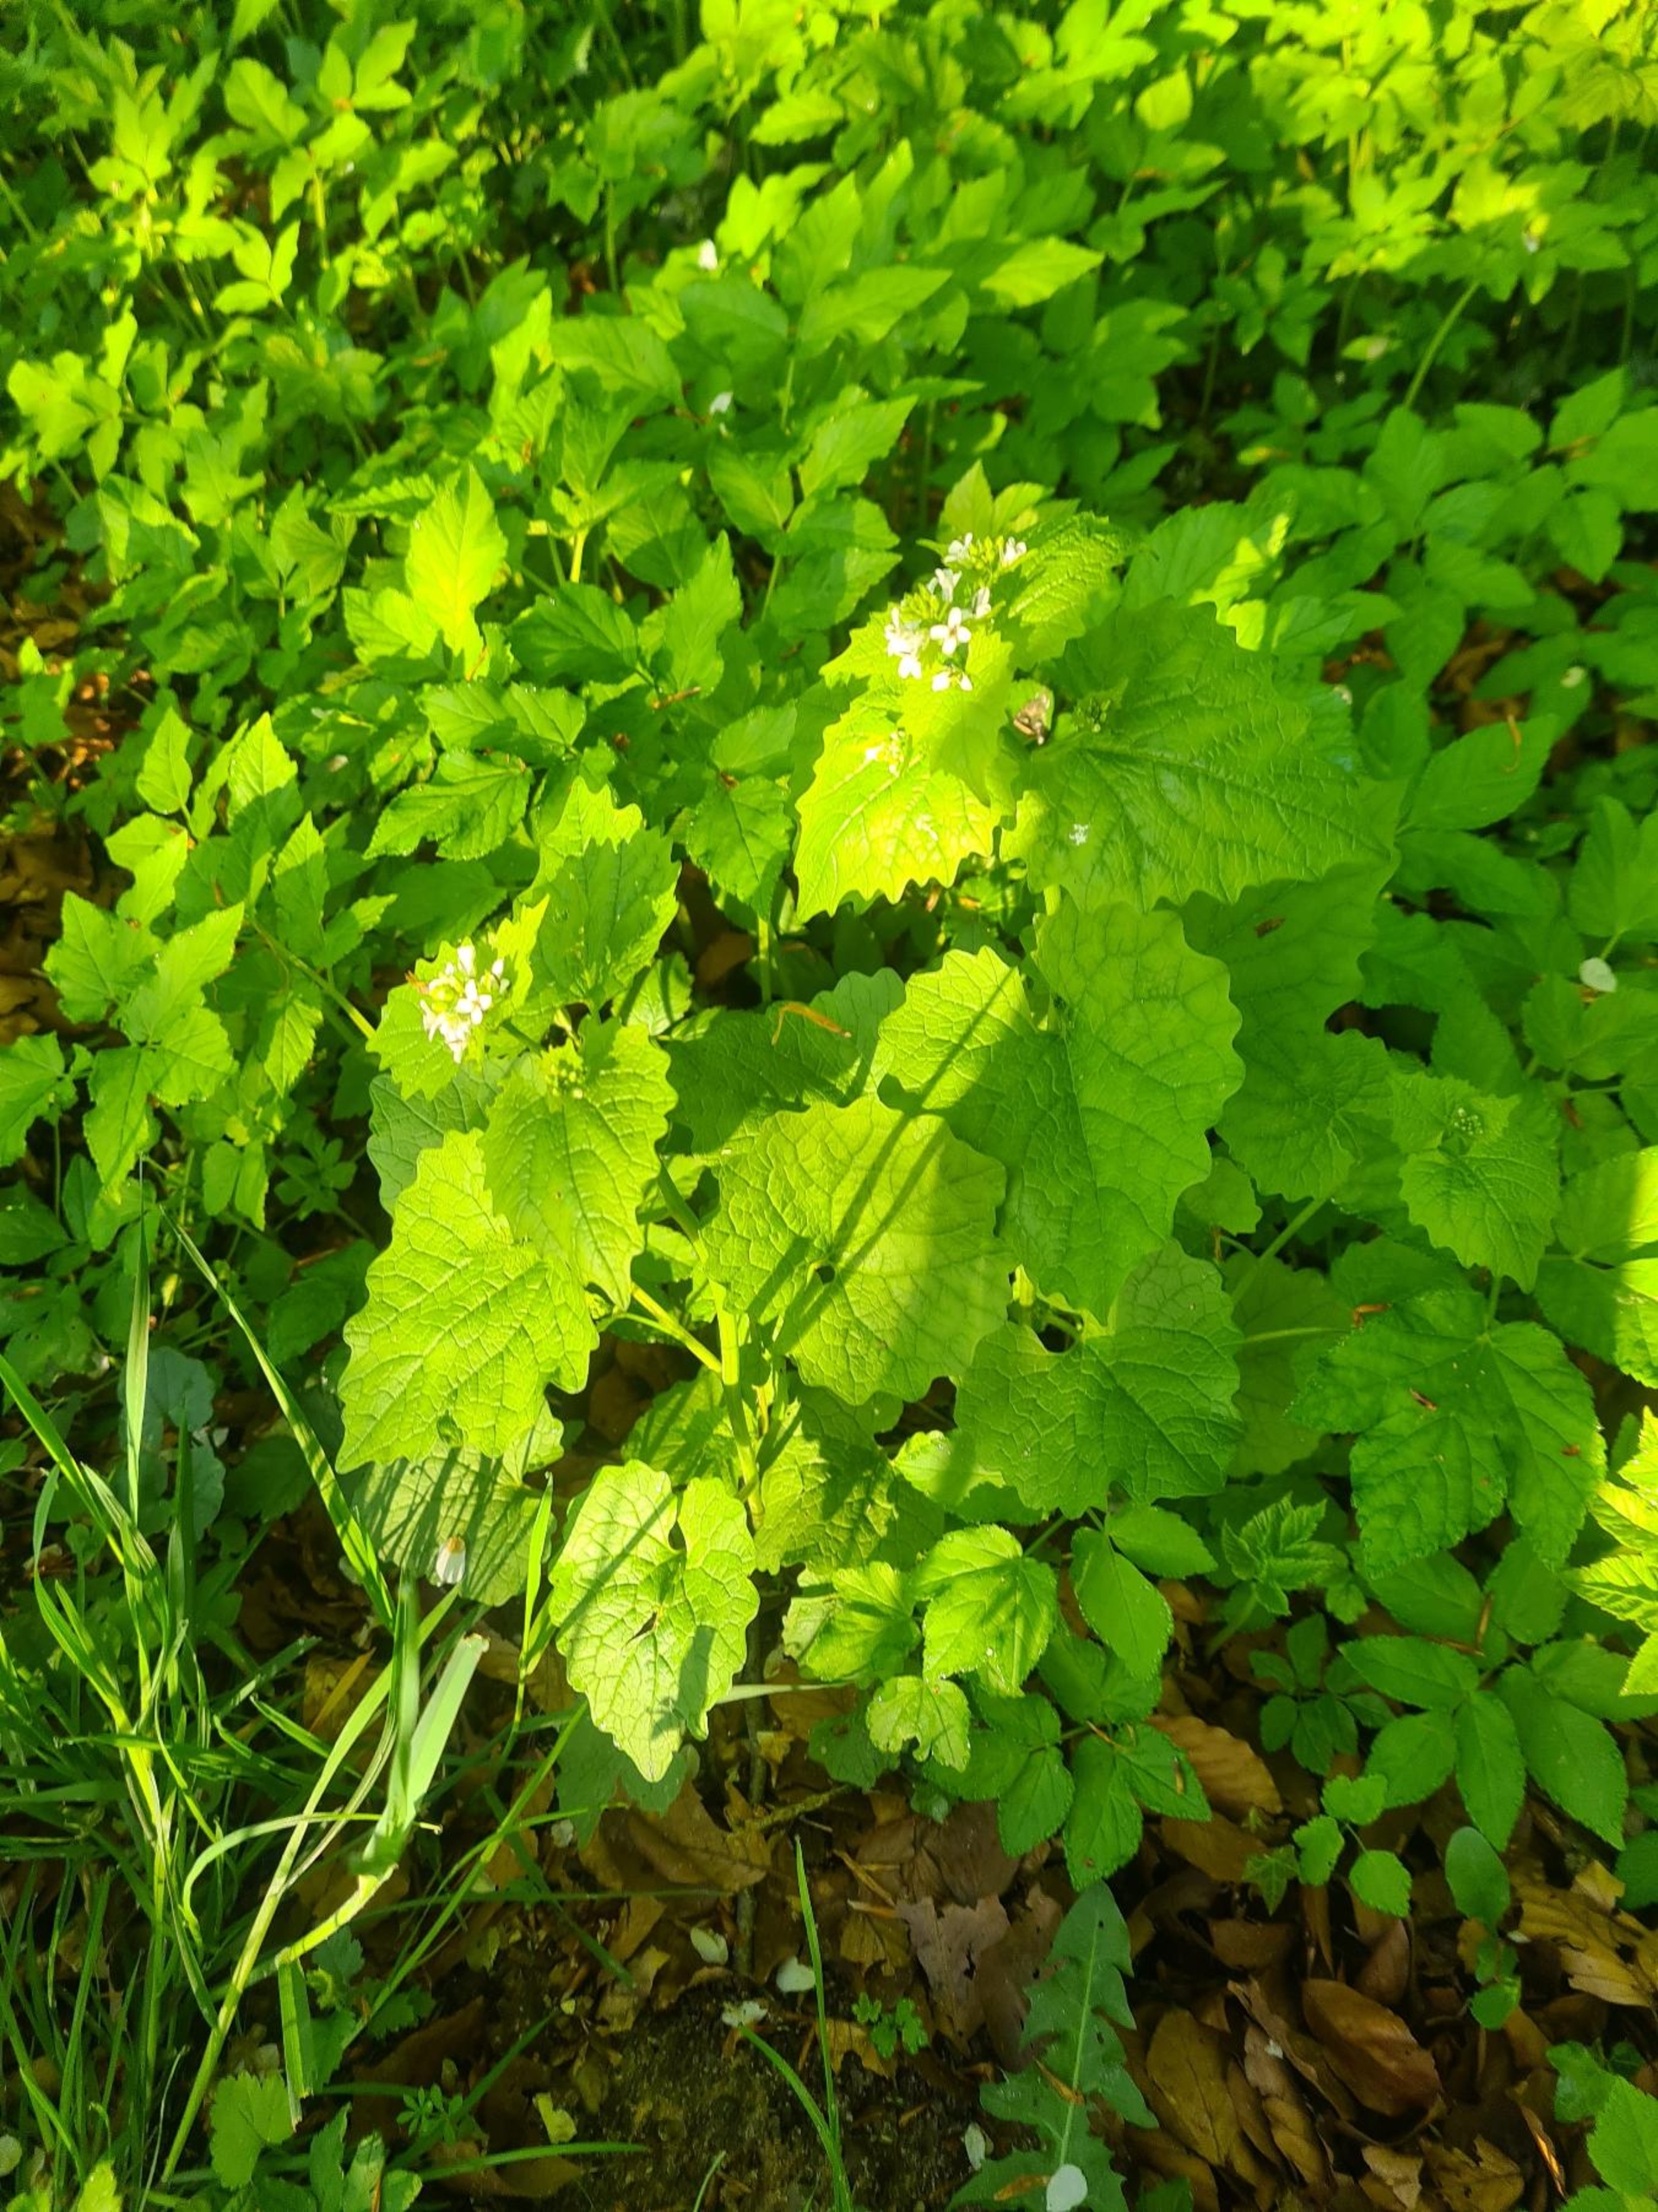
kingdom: Plantae
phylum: Tracheophyta
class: Magnoliopsida
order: Brassicales
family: Brassicaceae
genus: Alliaria
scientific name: Alliaria petiolata
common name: Løgkarse
